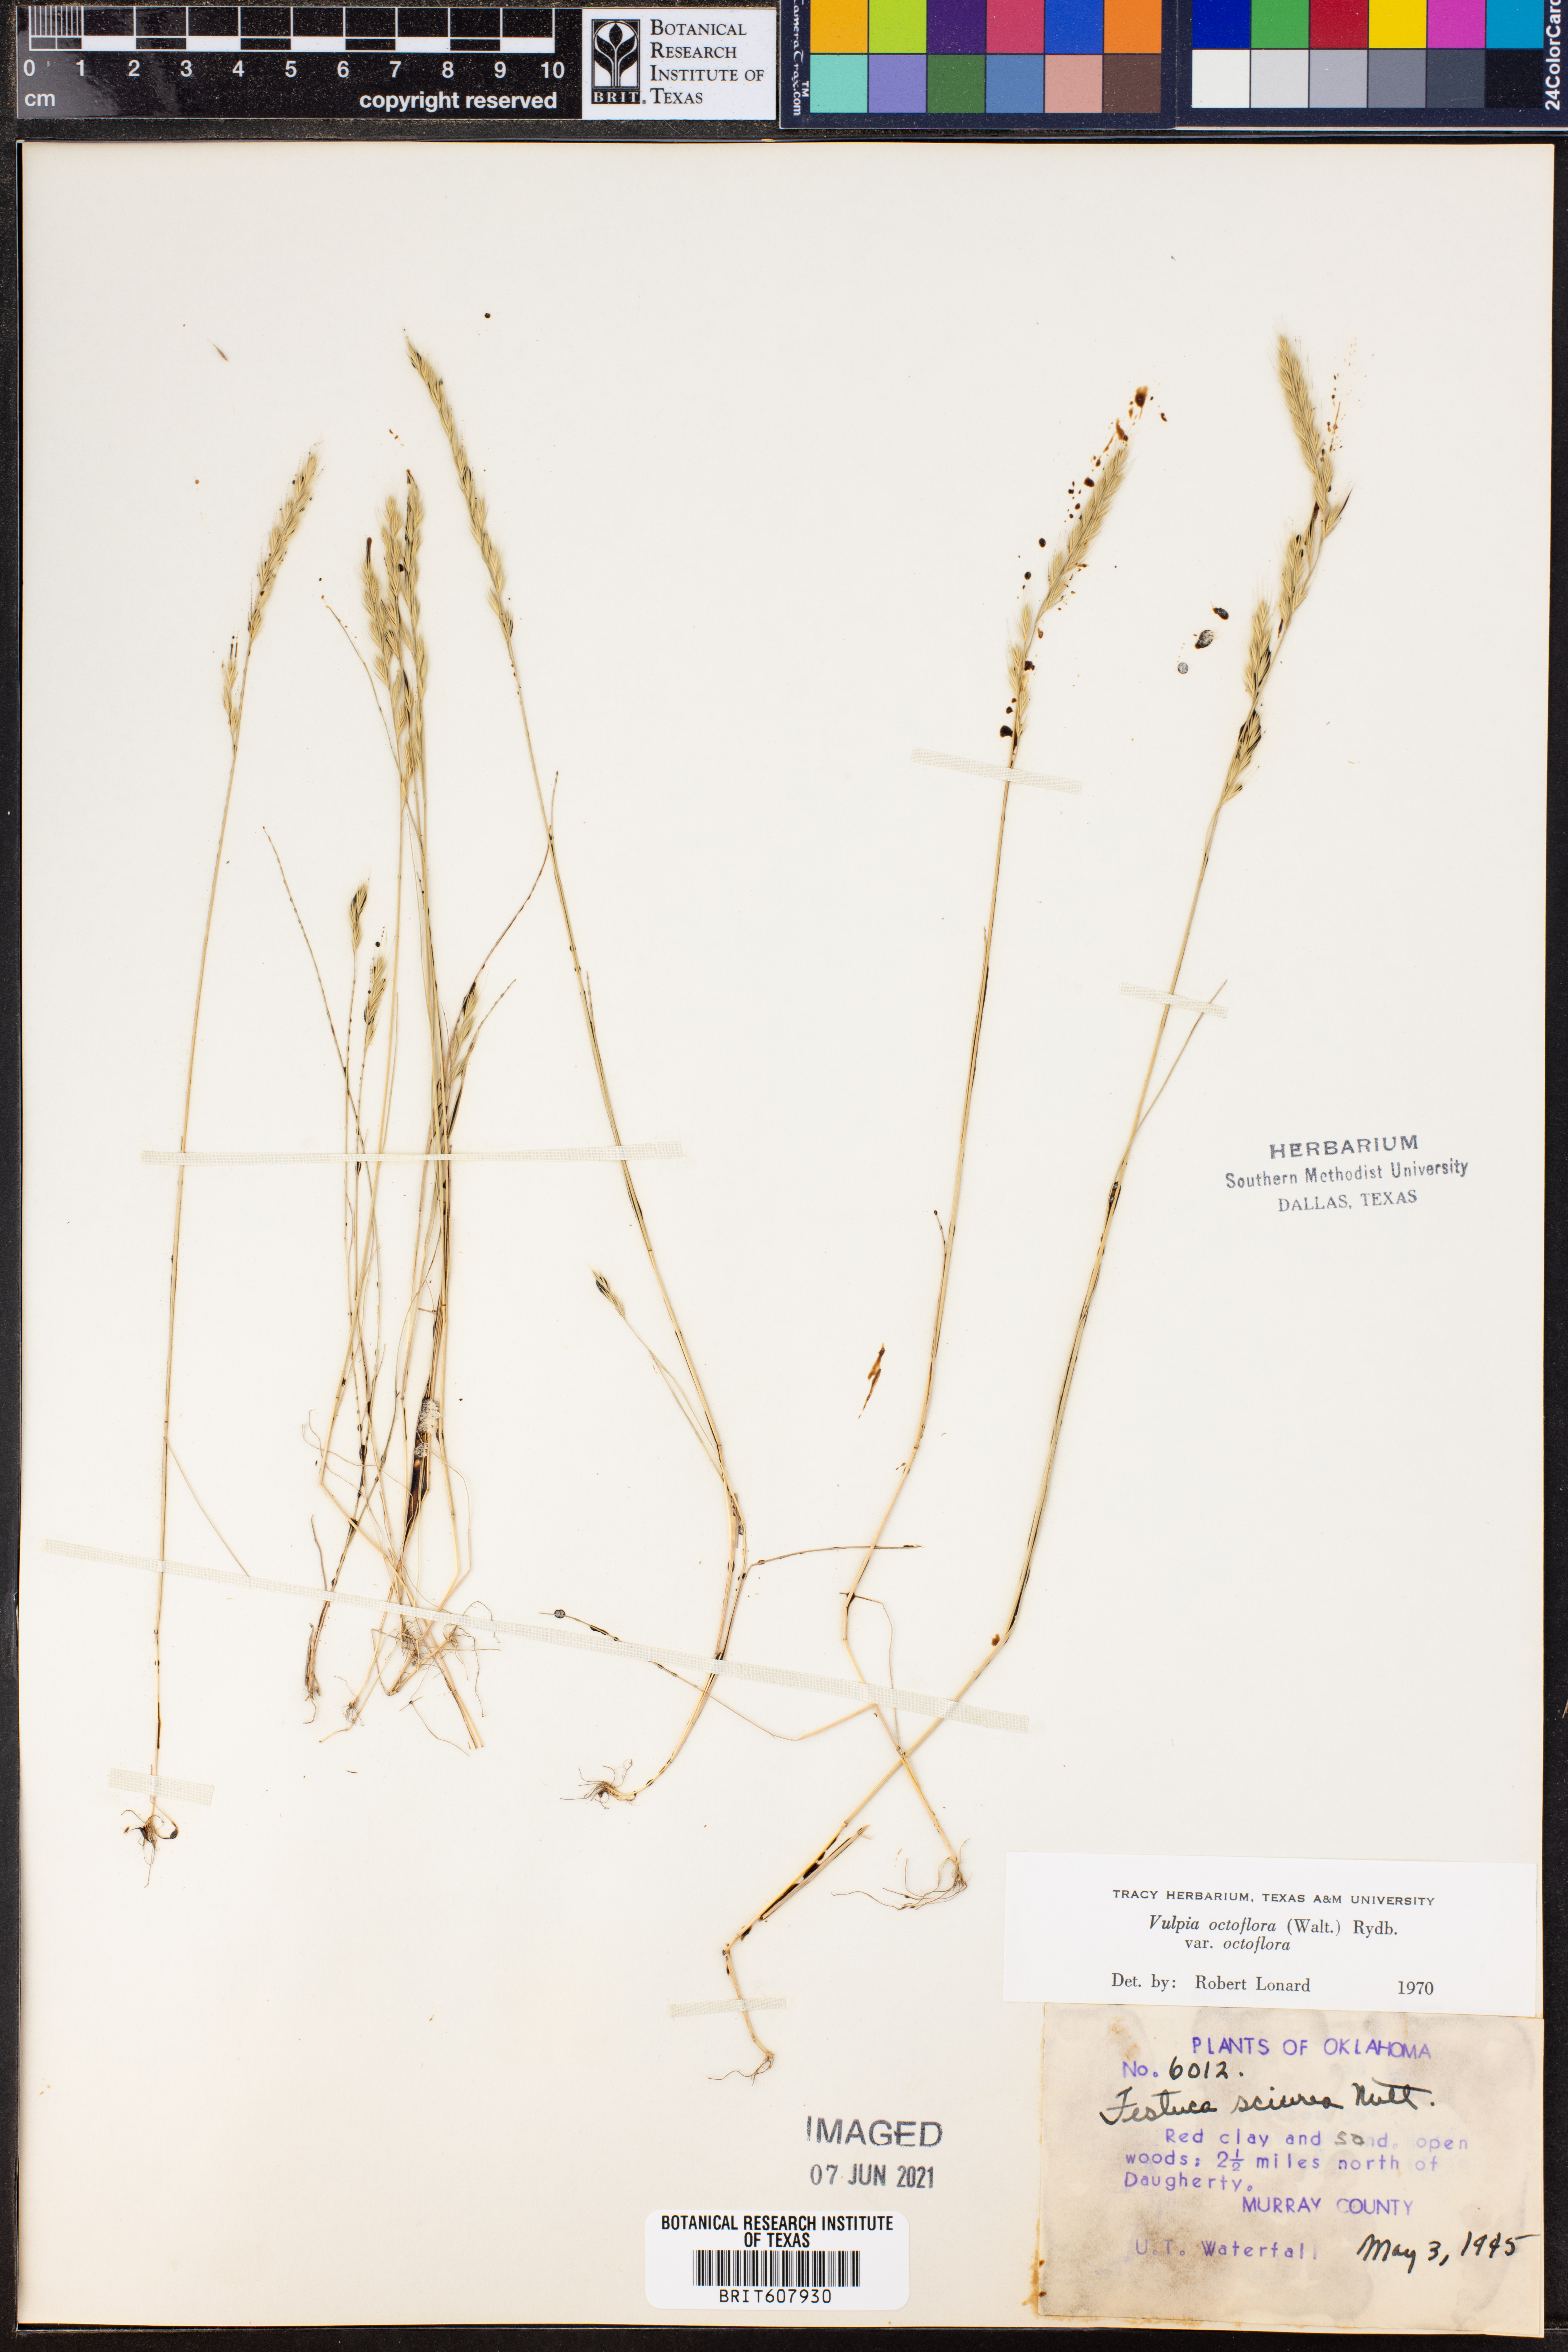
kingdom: Plantae
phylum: Tracheophyta
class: Liliopsida
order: Poales
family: Poaceae
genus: Festuca
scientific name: Festuca octoflora
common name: Sixweeks grass
